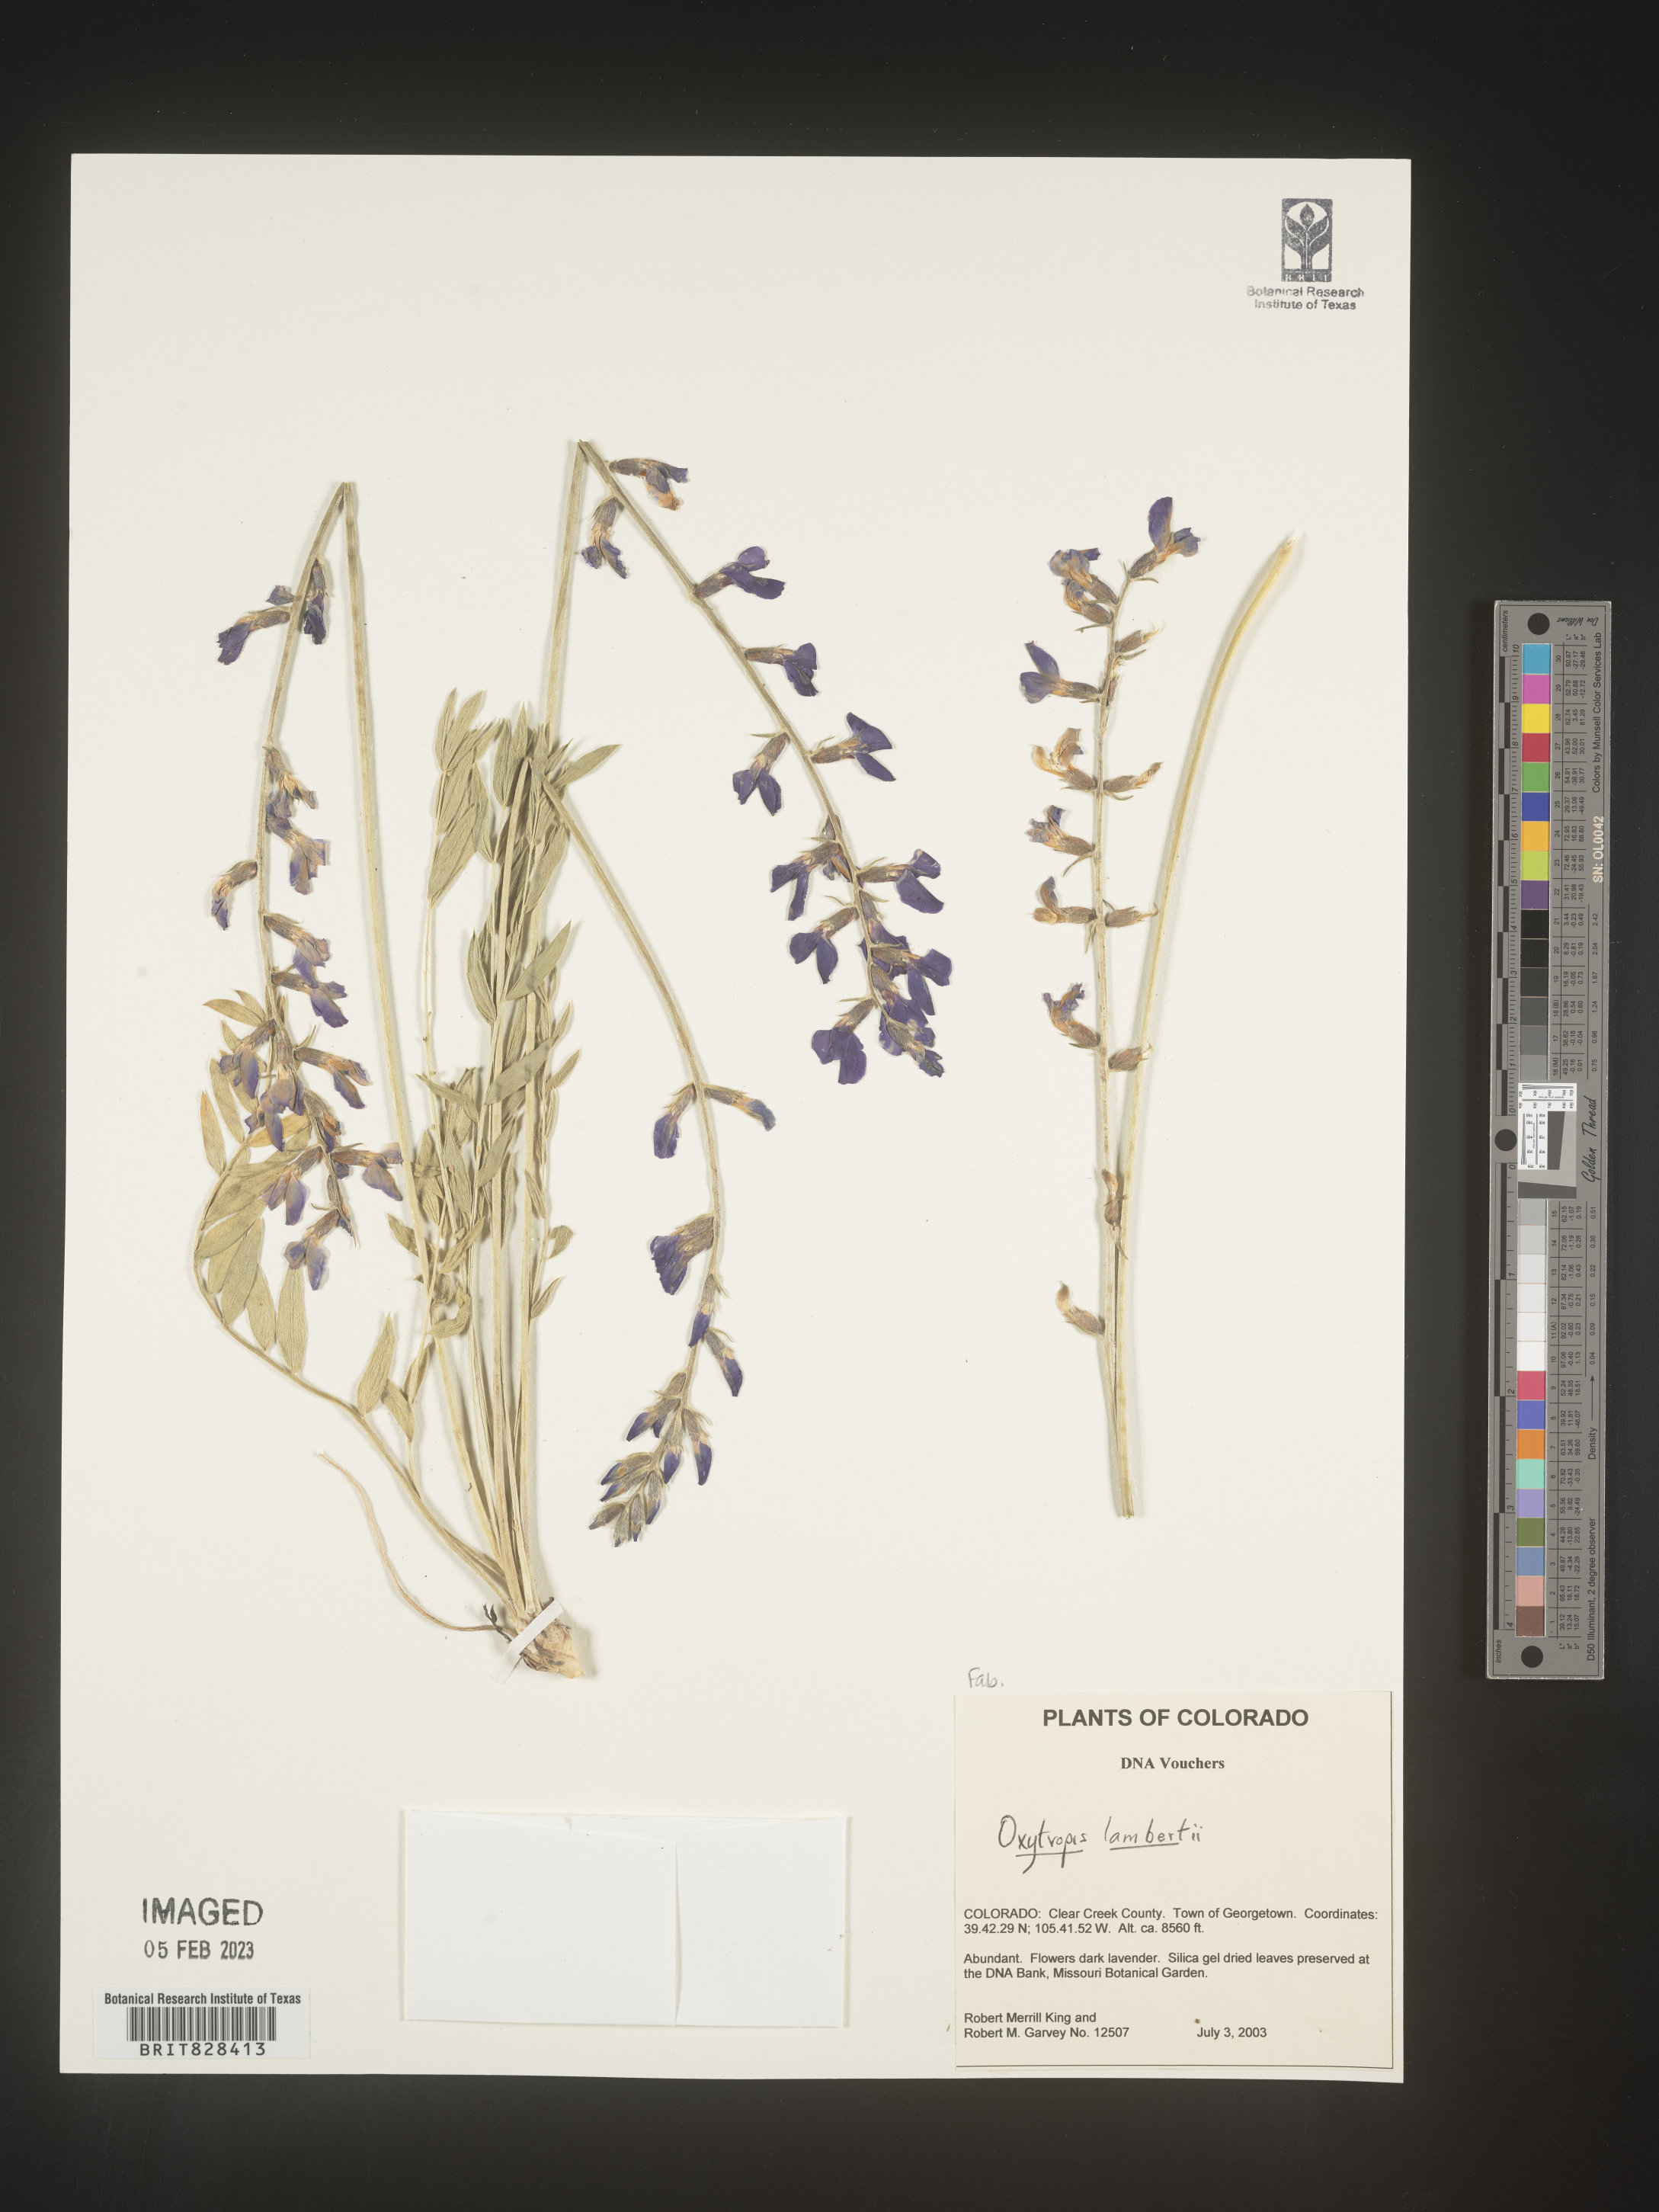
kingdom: Plantae
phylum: Tracheophyta
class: Magnoliopsida
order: Fabales
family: Fabaceae
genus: Oxytropis
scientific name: Oxytropis lambertii
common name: Purple locoweed
